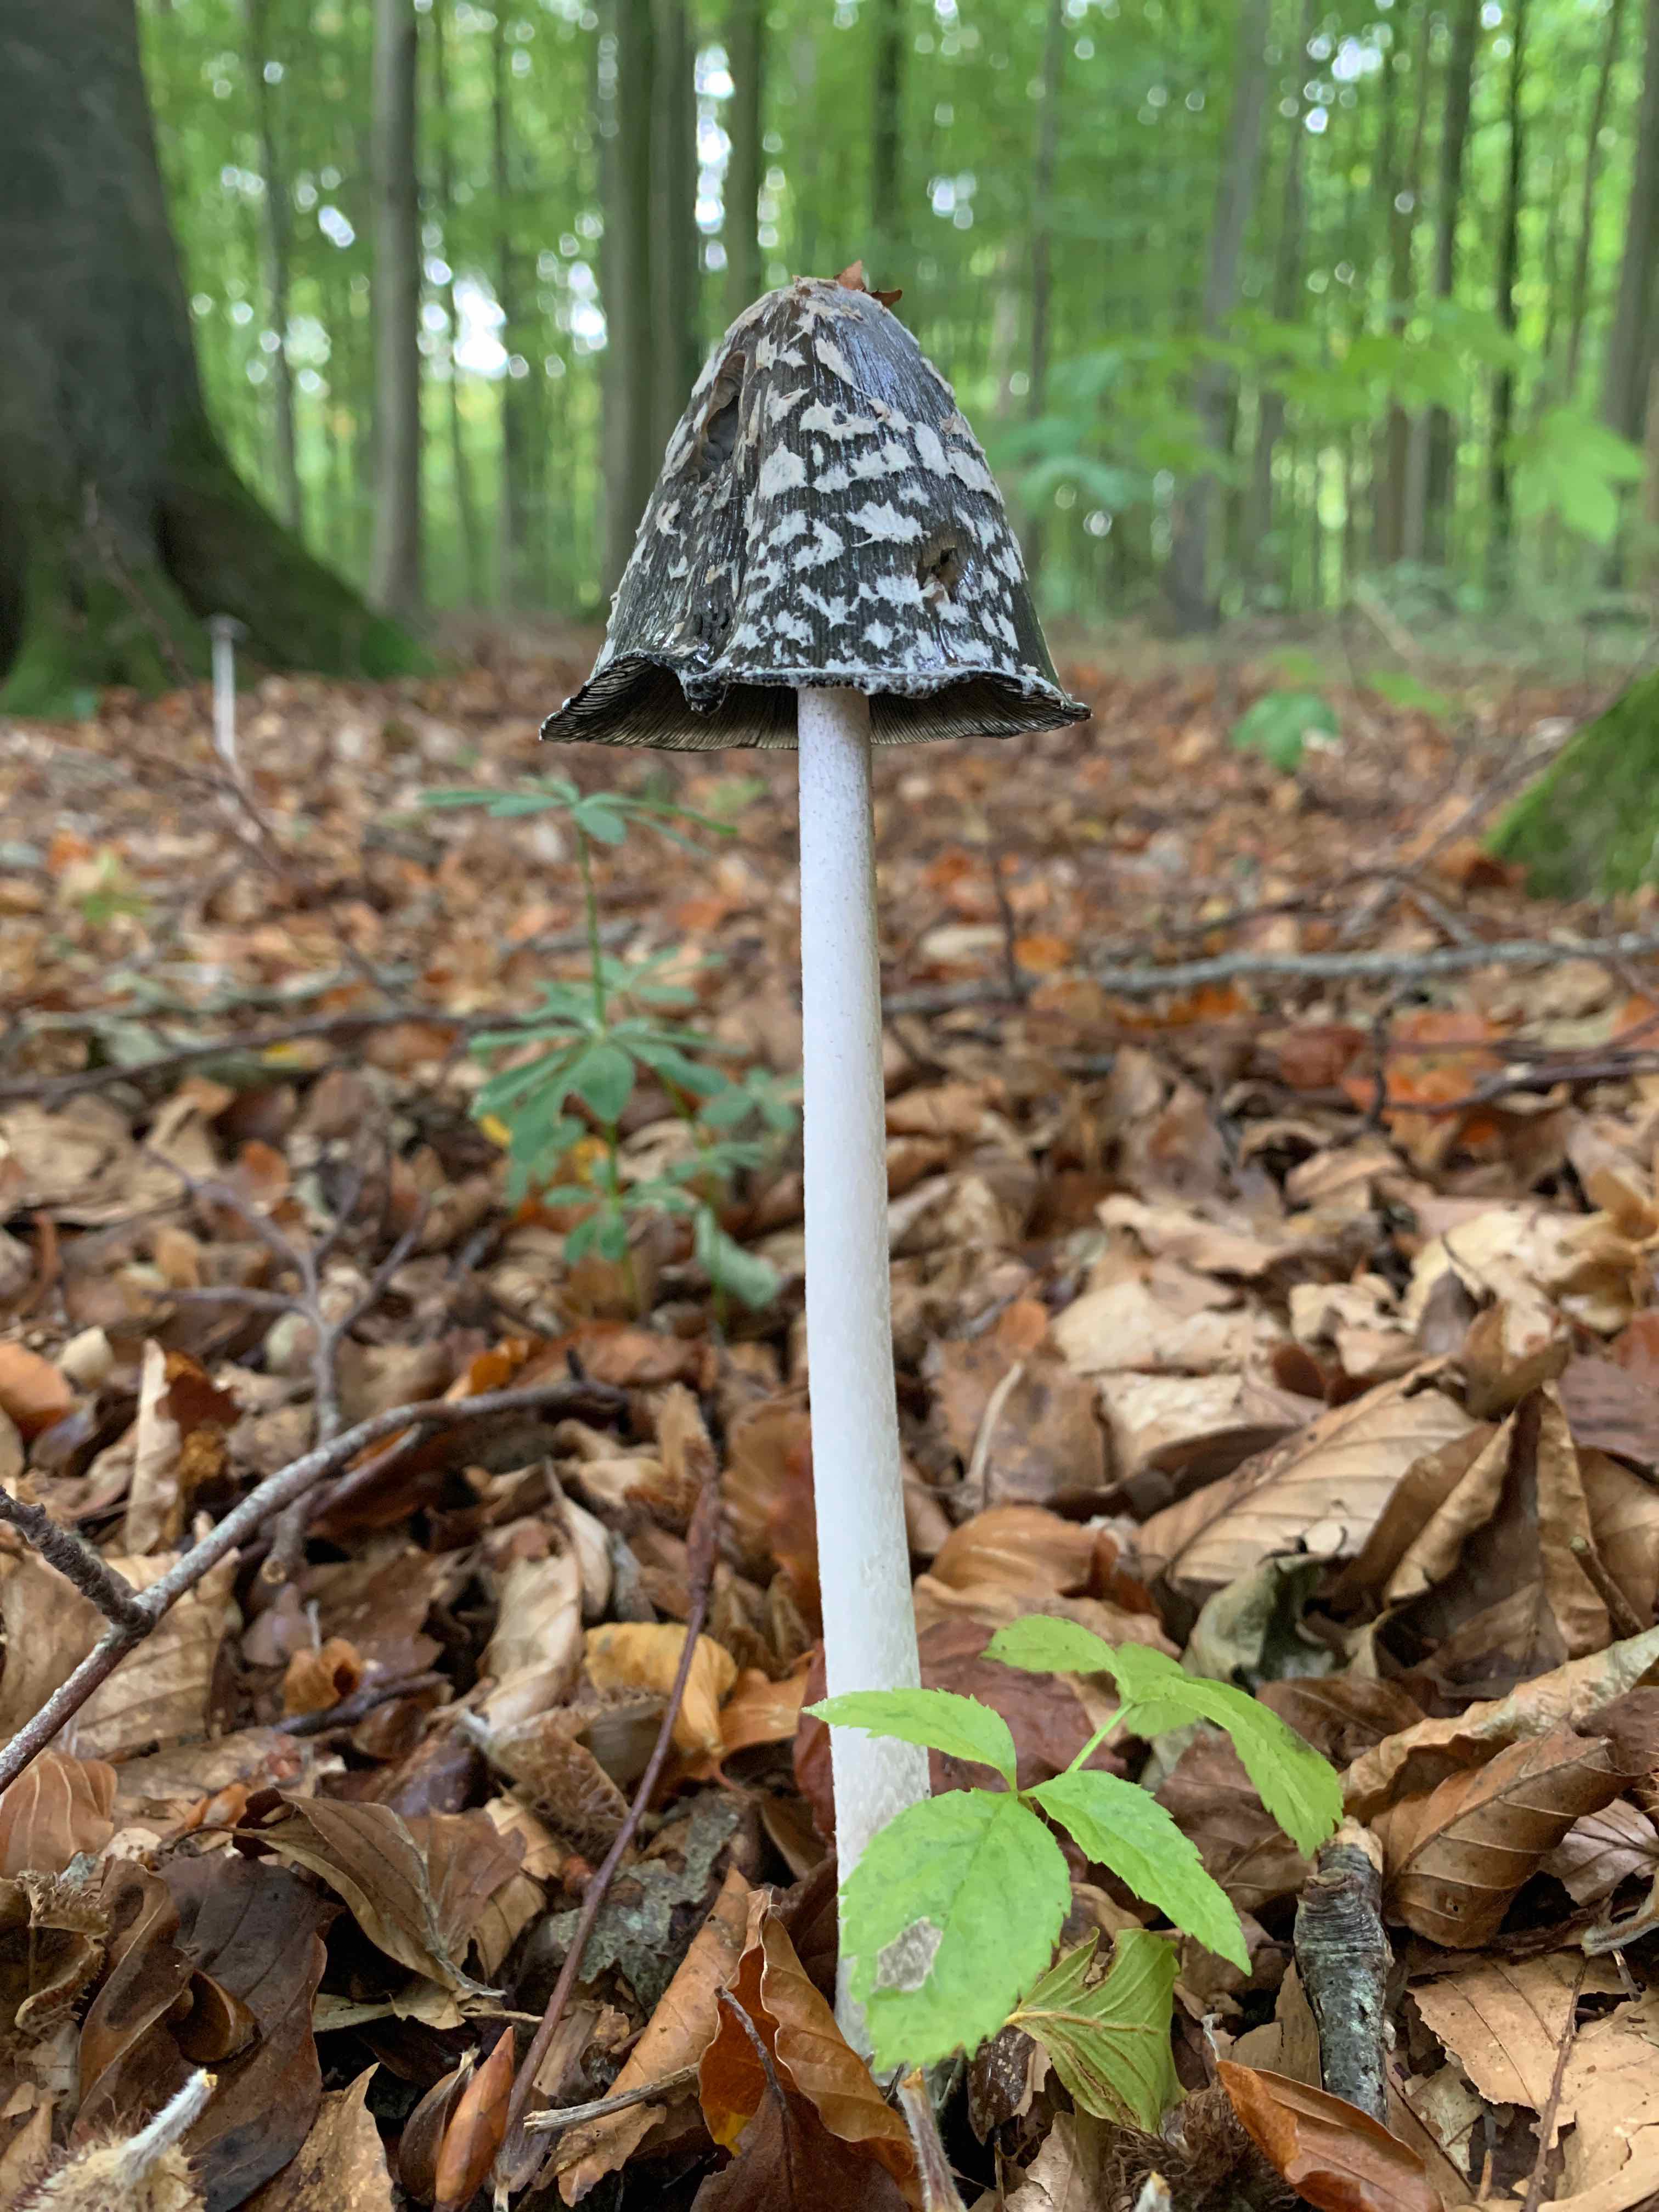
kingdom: Fungi
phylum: Basidiomycota
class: Agaricomycetes
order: Agaricales
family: Psathyrellaceae
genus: Coprinopsis
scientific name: Coprinopsis picacea
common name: skade-blækhat
